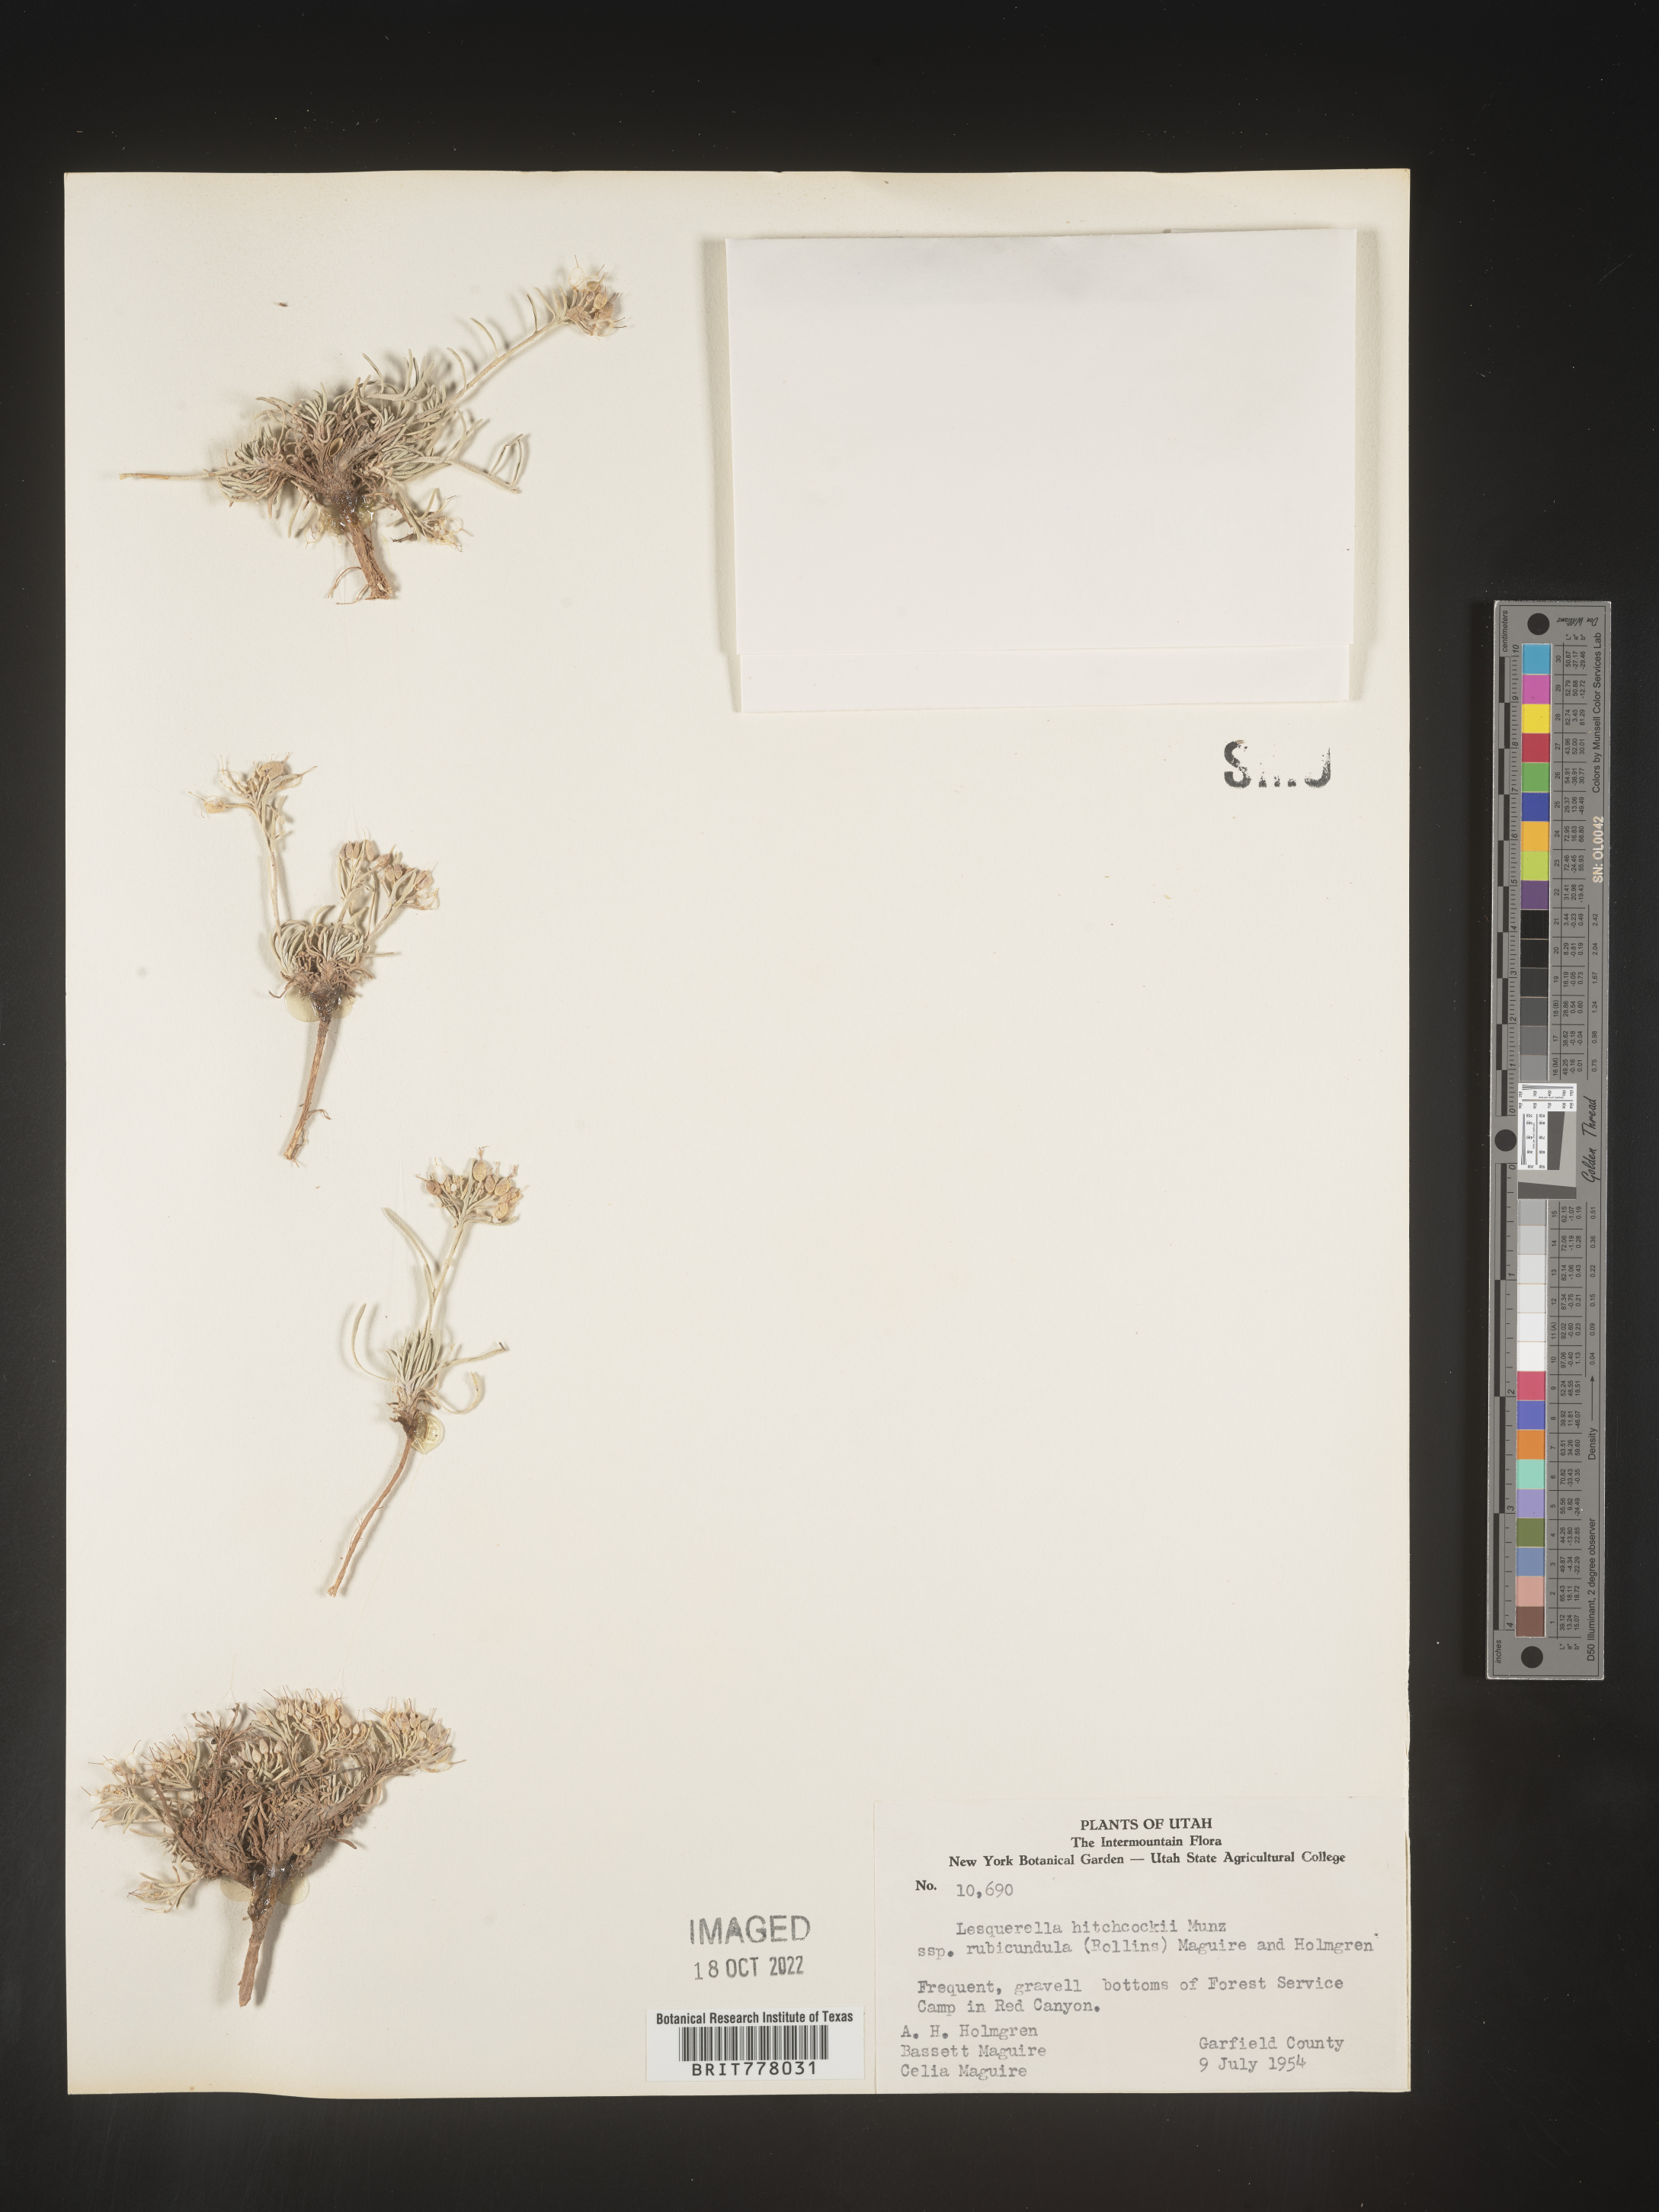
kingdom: Chromista
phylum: Cercozoa
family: Psammonobiotidae
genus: Lesquerella
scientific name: Lesquerella
